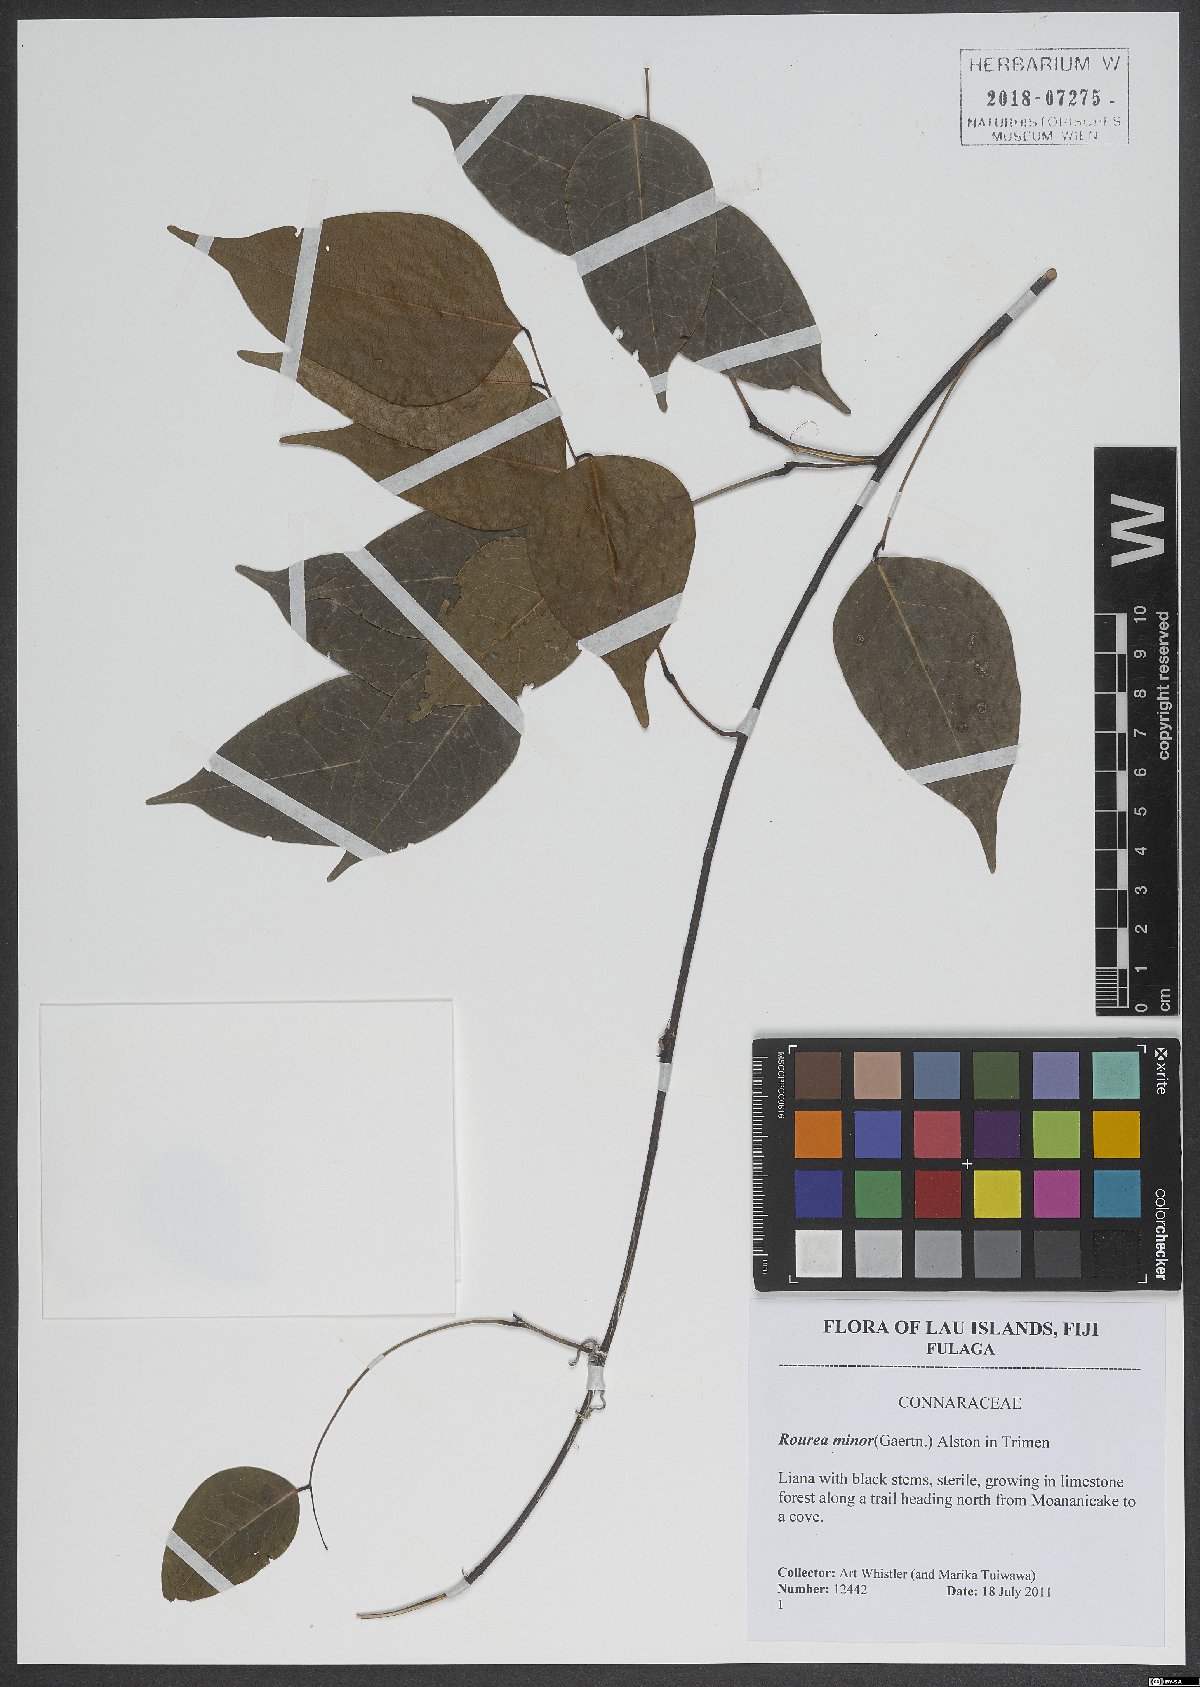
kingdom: Plantae
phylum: Tracheophyta
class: Magnoliopsida
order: Oxalidales
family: Connaraceae
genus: Rourea
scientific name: Rourea minor
